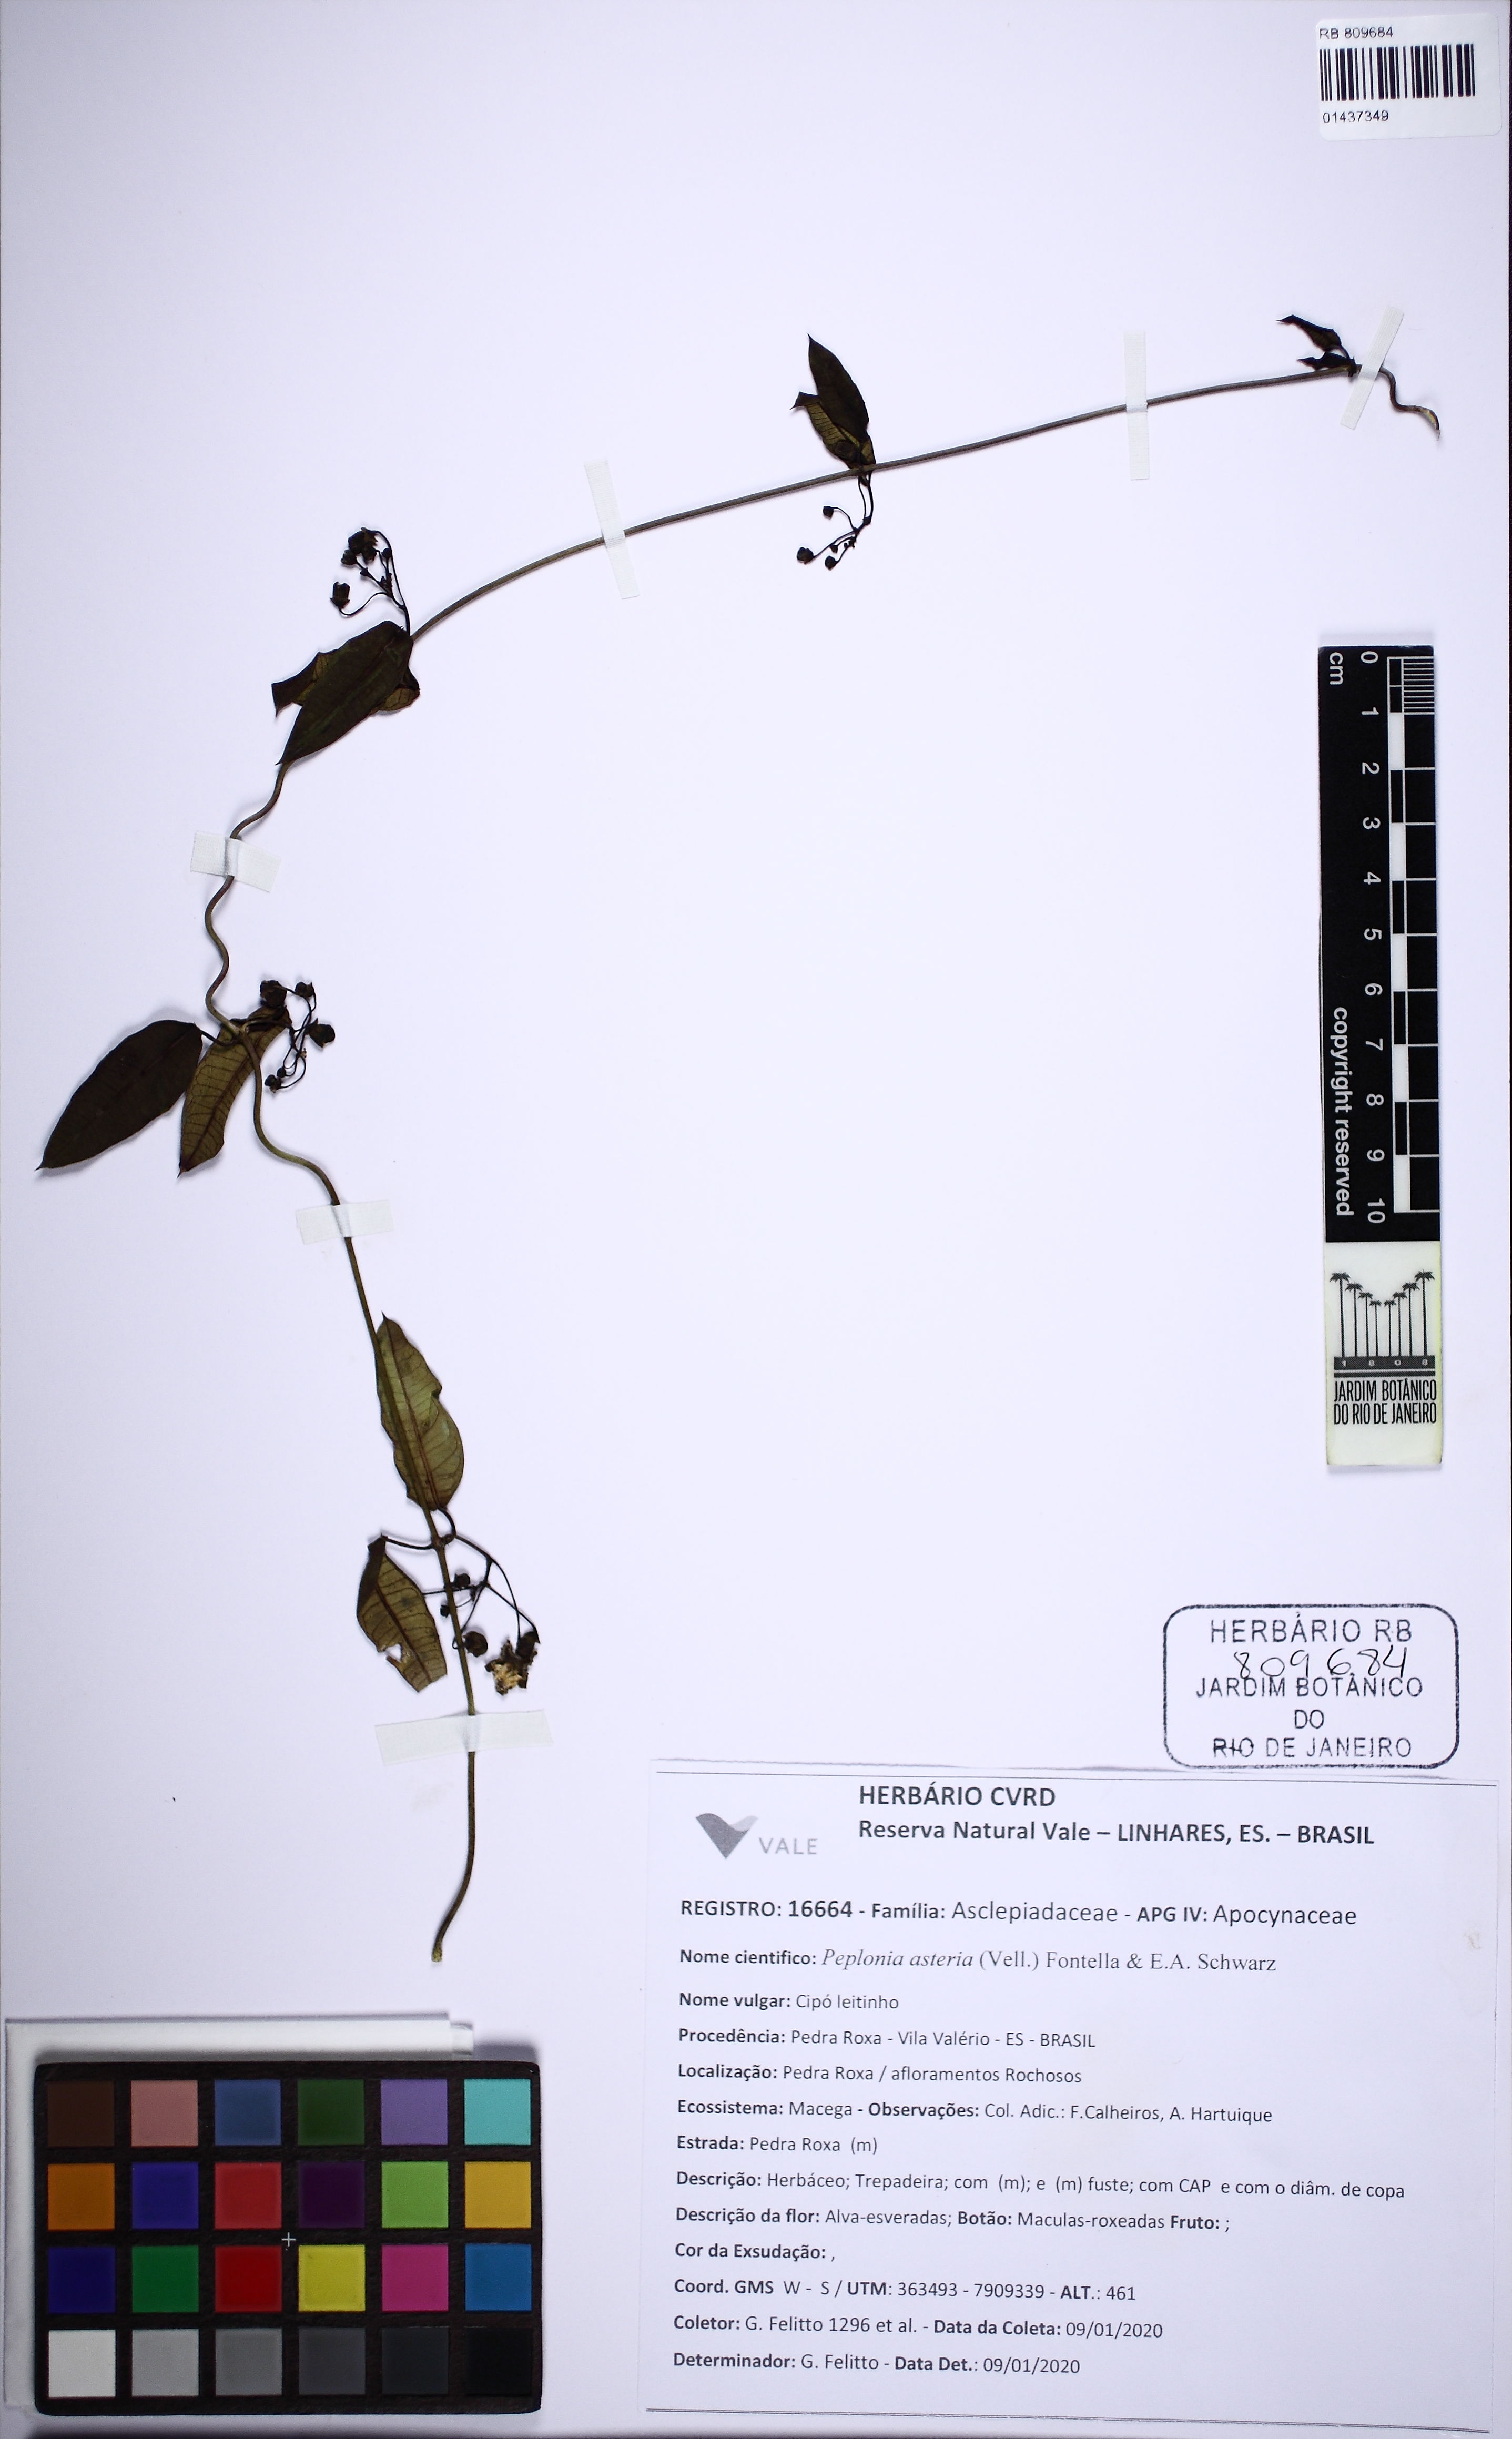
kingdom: Plantae
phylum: Tracheophyta
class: Magnoliopsida
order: Gentianales
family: Apocynaceae
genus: Peplonia
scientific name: Peplonia asteria
